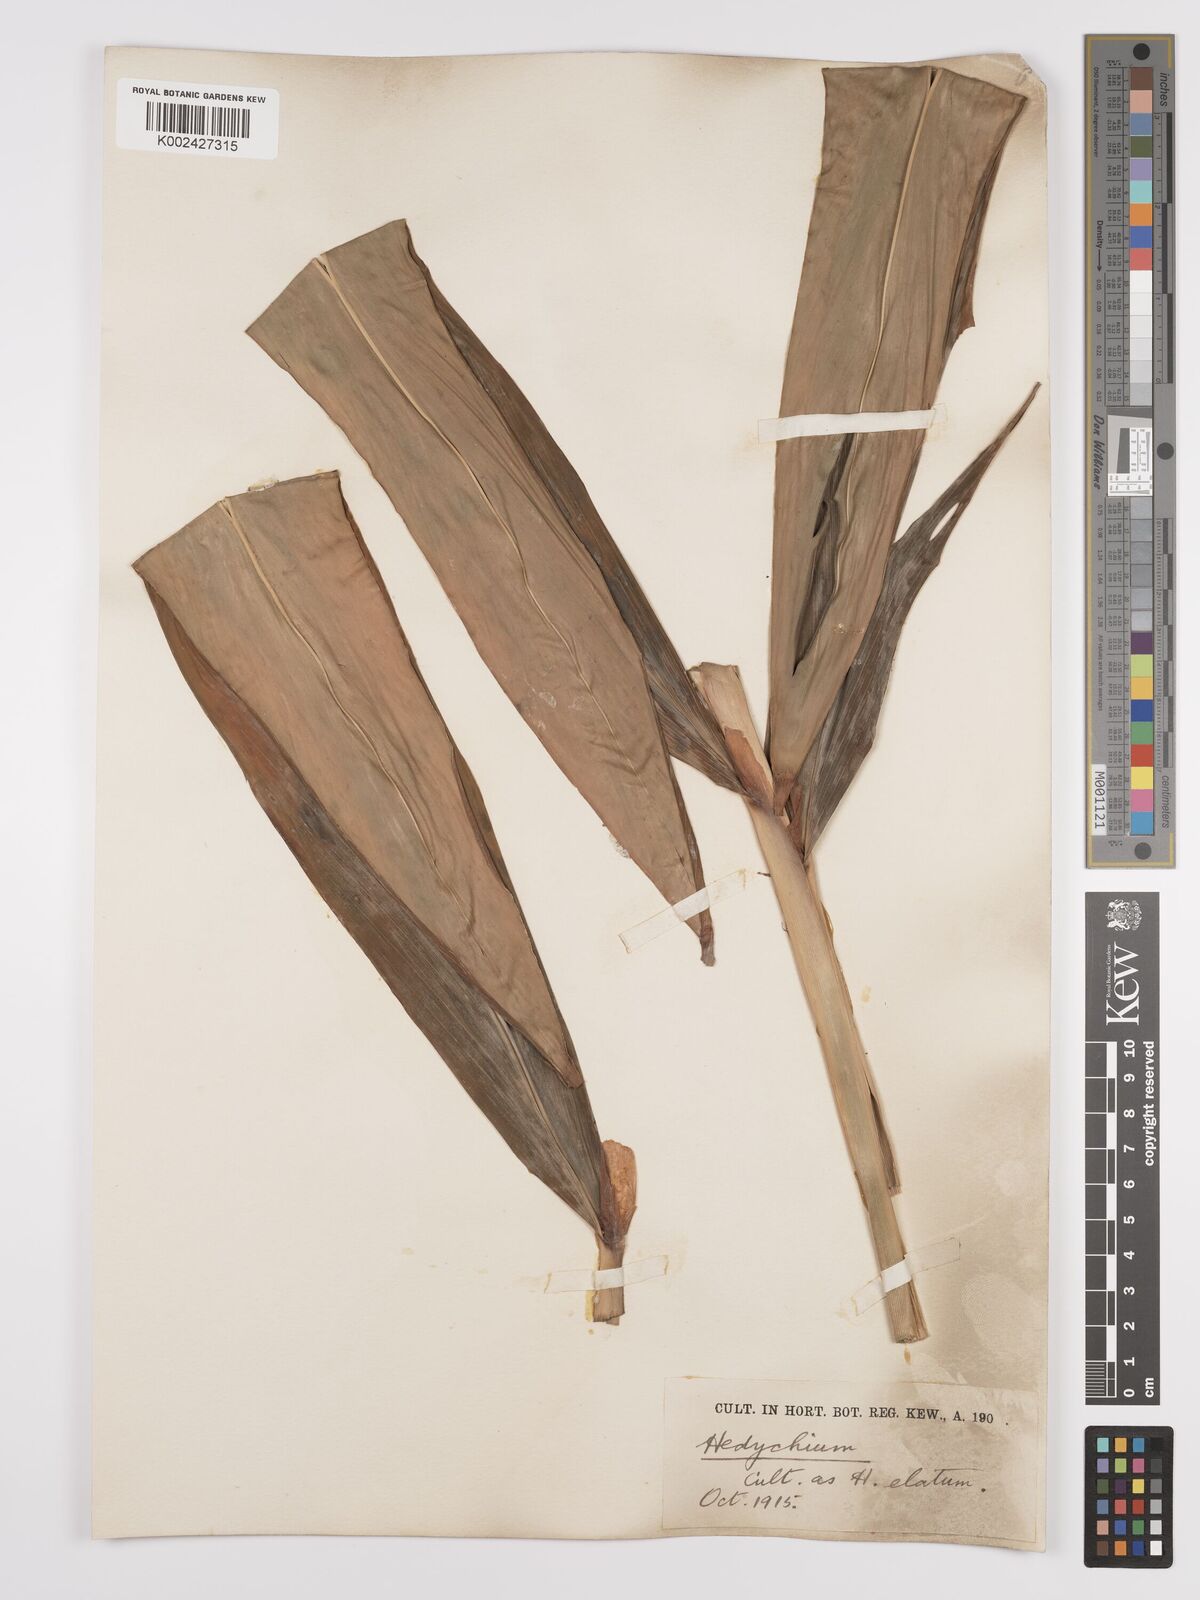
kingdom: Plantae
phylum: Tracheophyta
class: Liliopsida
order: Zingiberales
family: Zingiberaceae
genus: Hedychium
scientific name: Hedychium elatum
